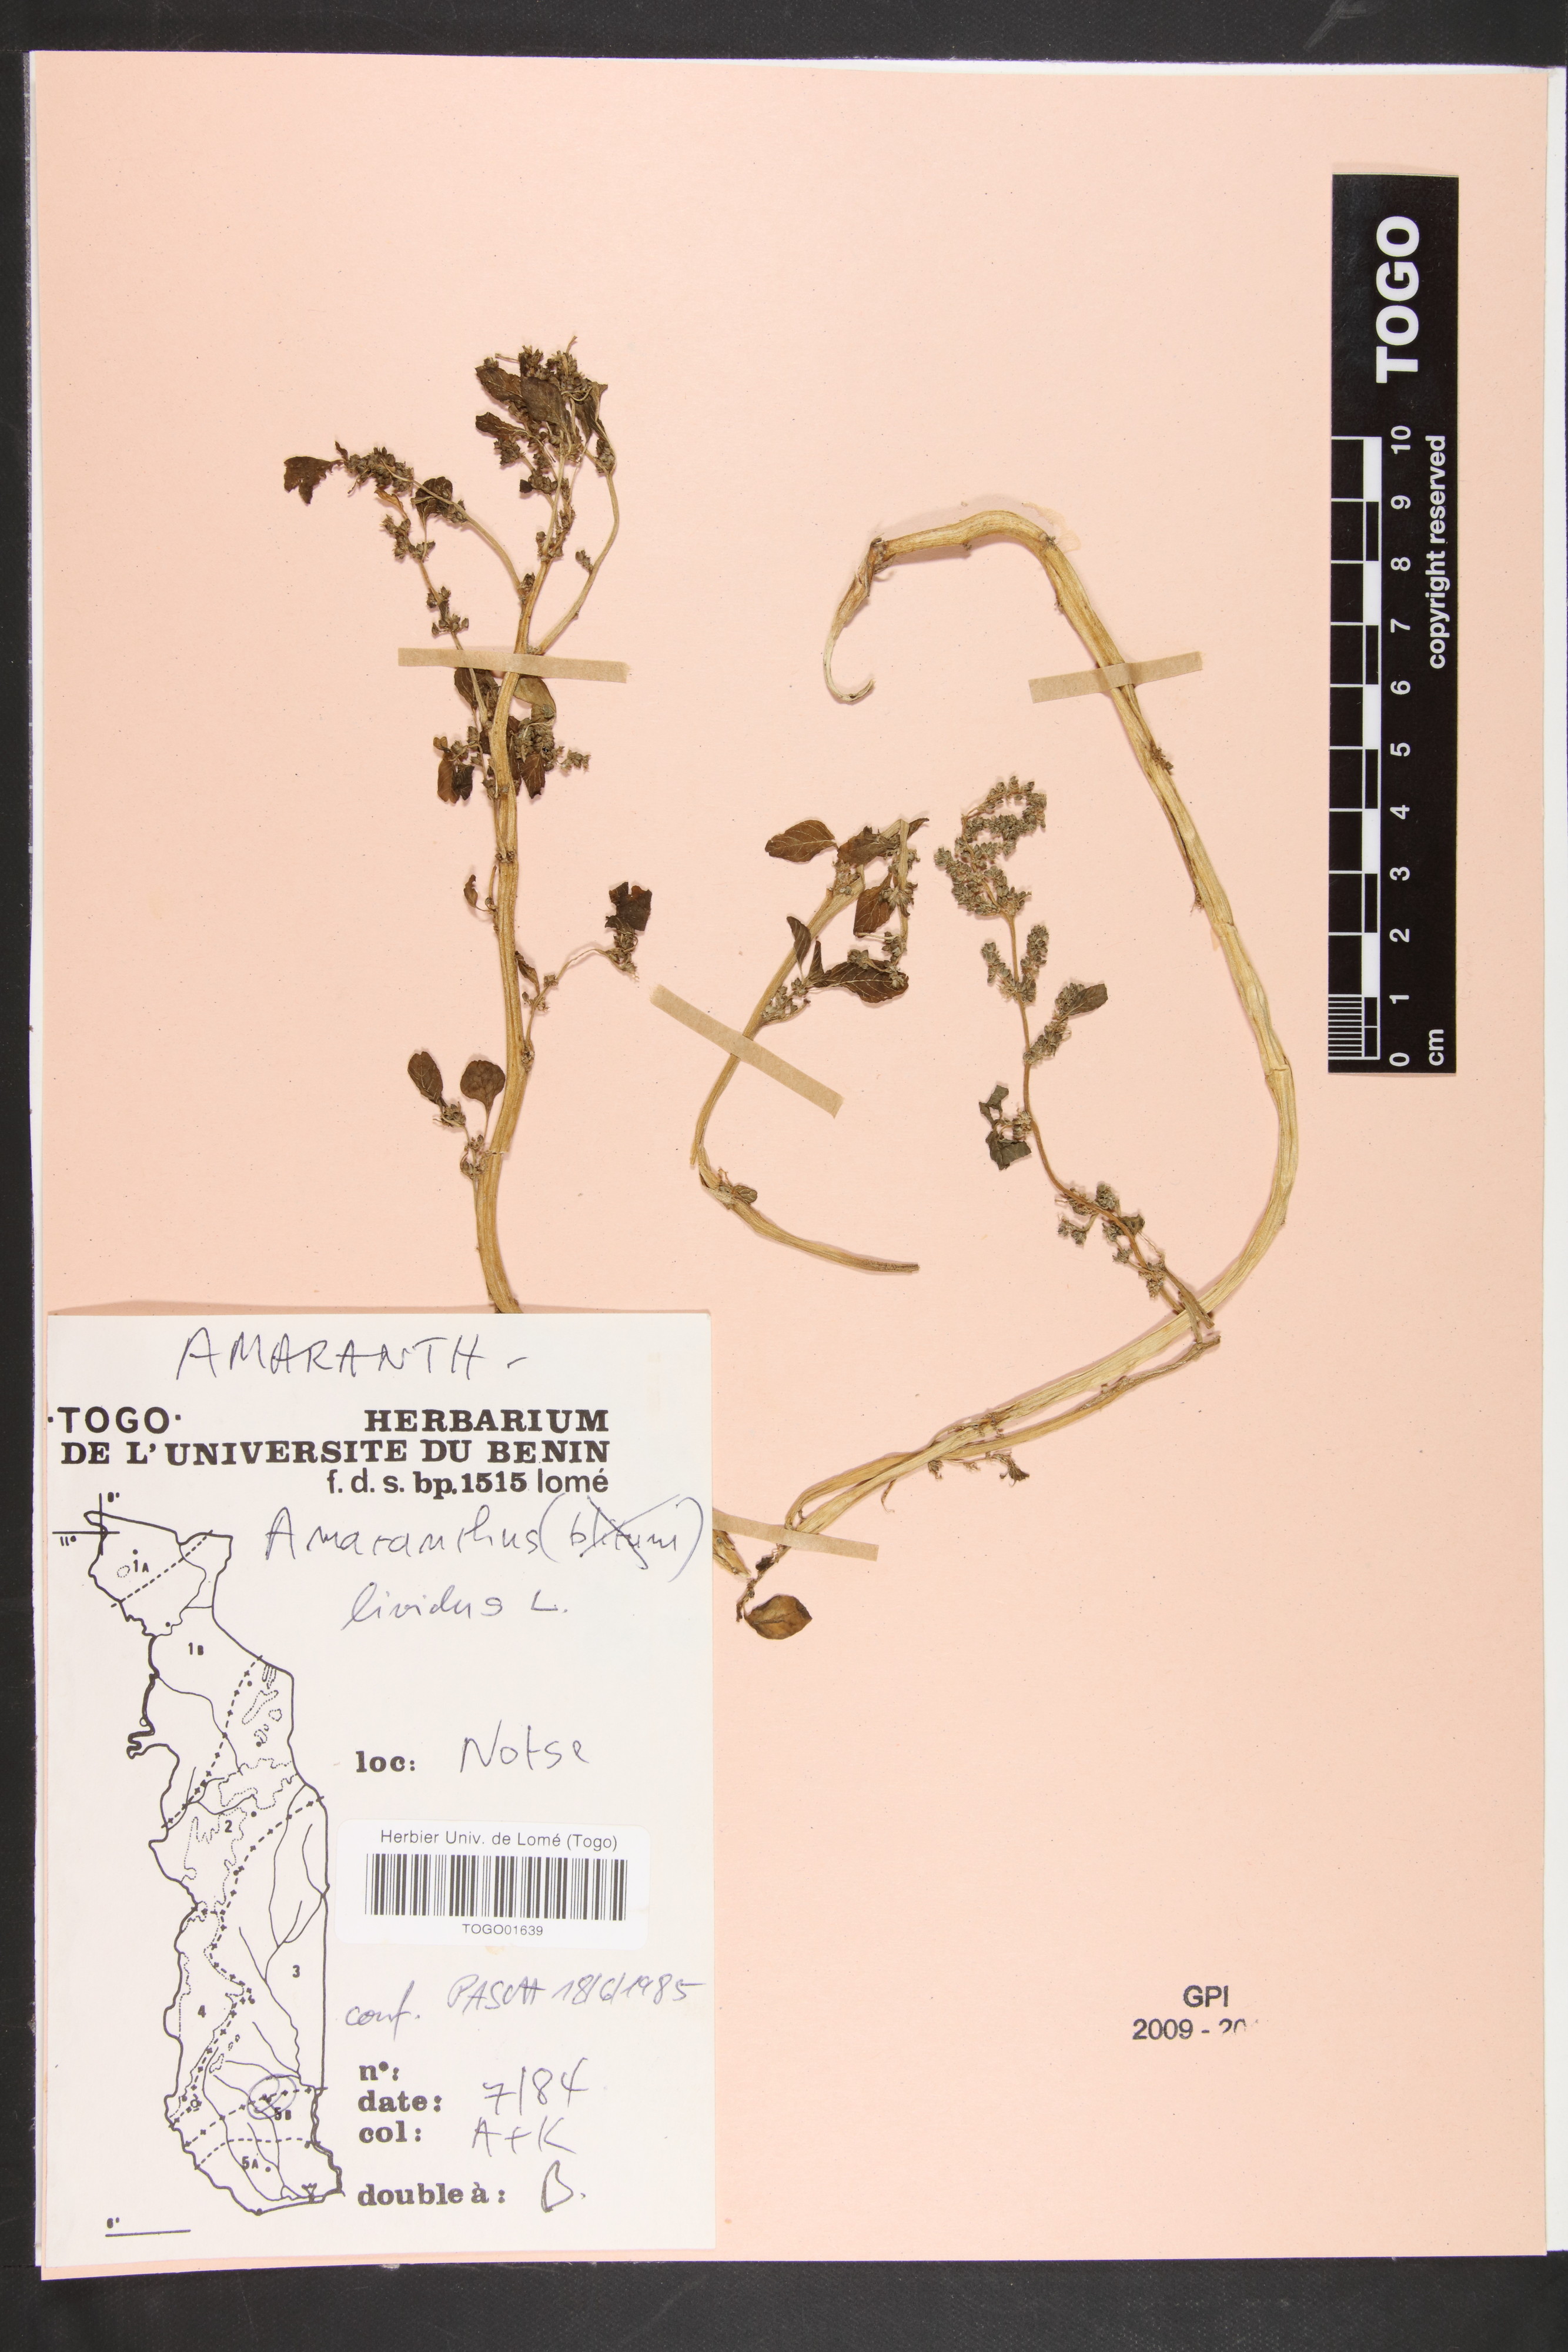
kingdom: Plantae
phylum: Tracheophyta
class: Magnoliopsida
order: Caryophyllales
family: Amaranthaceae
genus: Amaranthus
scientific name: Amaranthus blitum
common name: Purple amaranth
